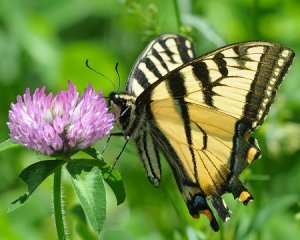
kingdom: Animalia
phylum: Arthropoda
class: Insecta
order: Lepidoptera
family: Papilionidae
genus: Pterourus
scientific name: Pterourus canadensis
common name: Canadian Tiger Swallowtail
